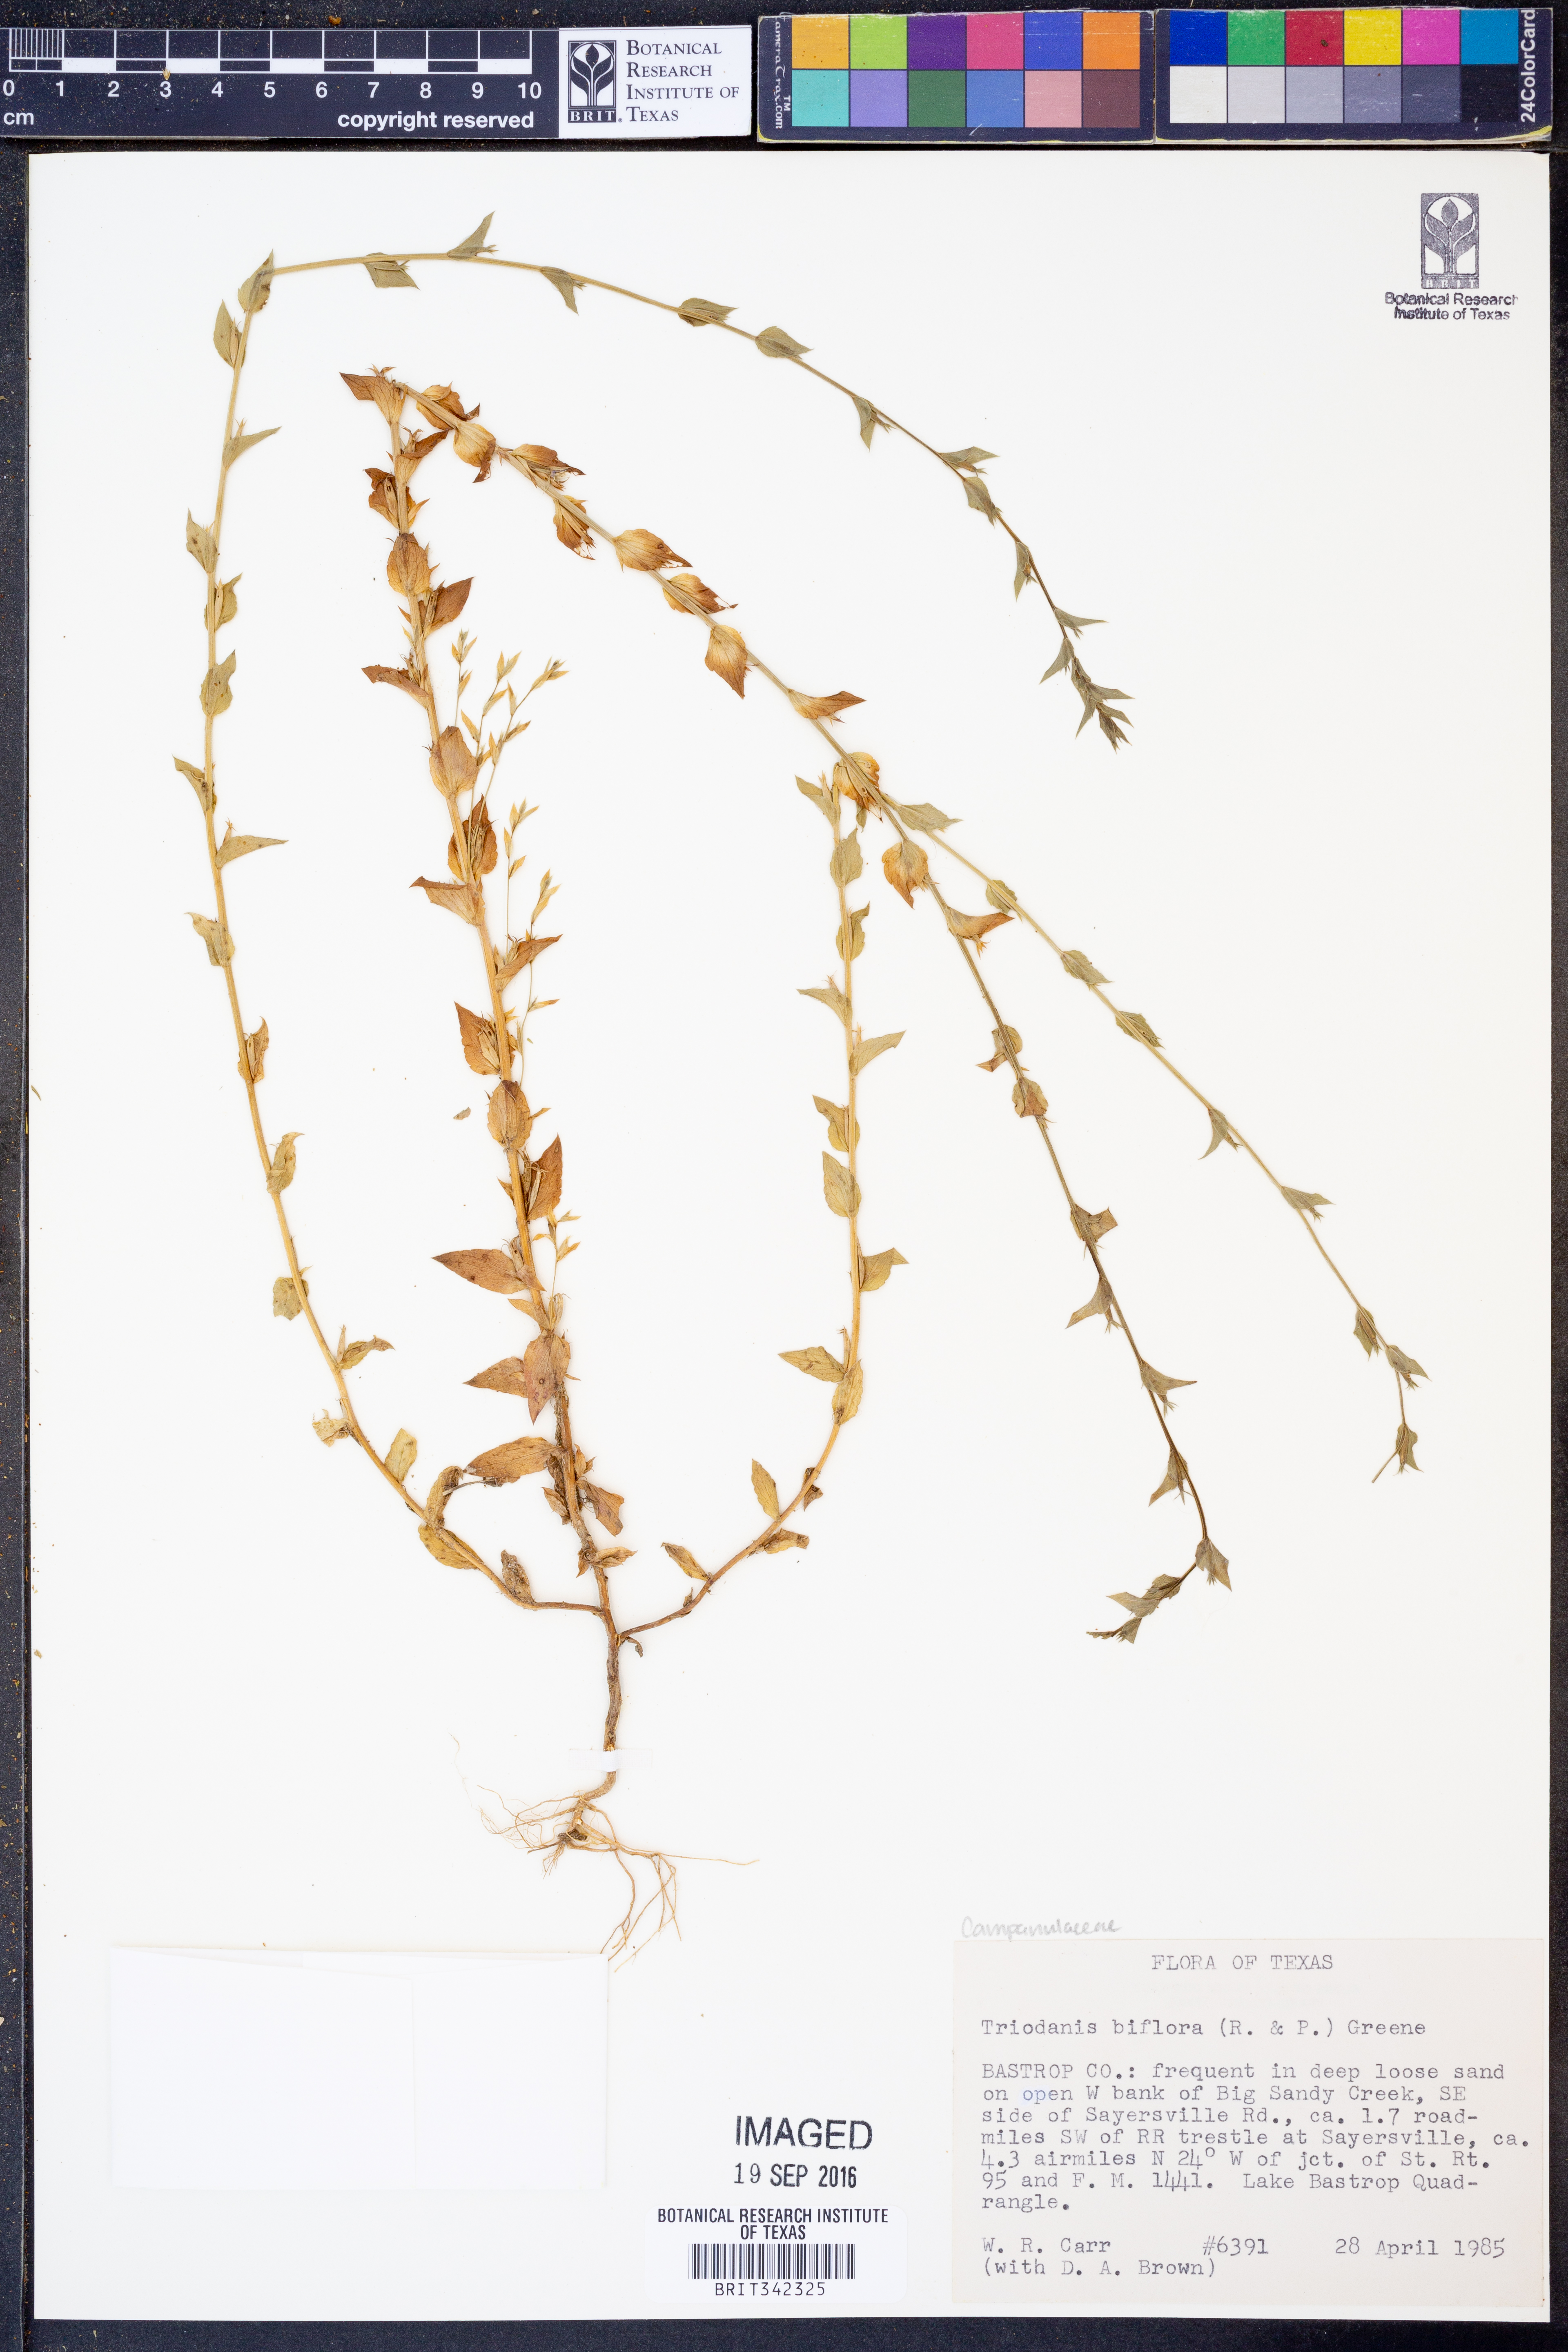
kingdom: Plantae
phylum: Tracheophyta
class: Magnoliopsida
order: Asterales
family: Campanulaceae
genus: Triodanis
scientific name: Triodanis perfoliata
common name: Clasping venus' looking-glass
